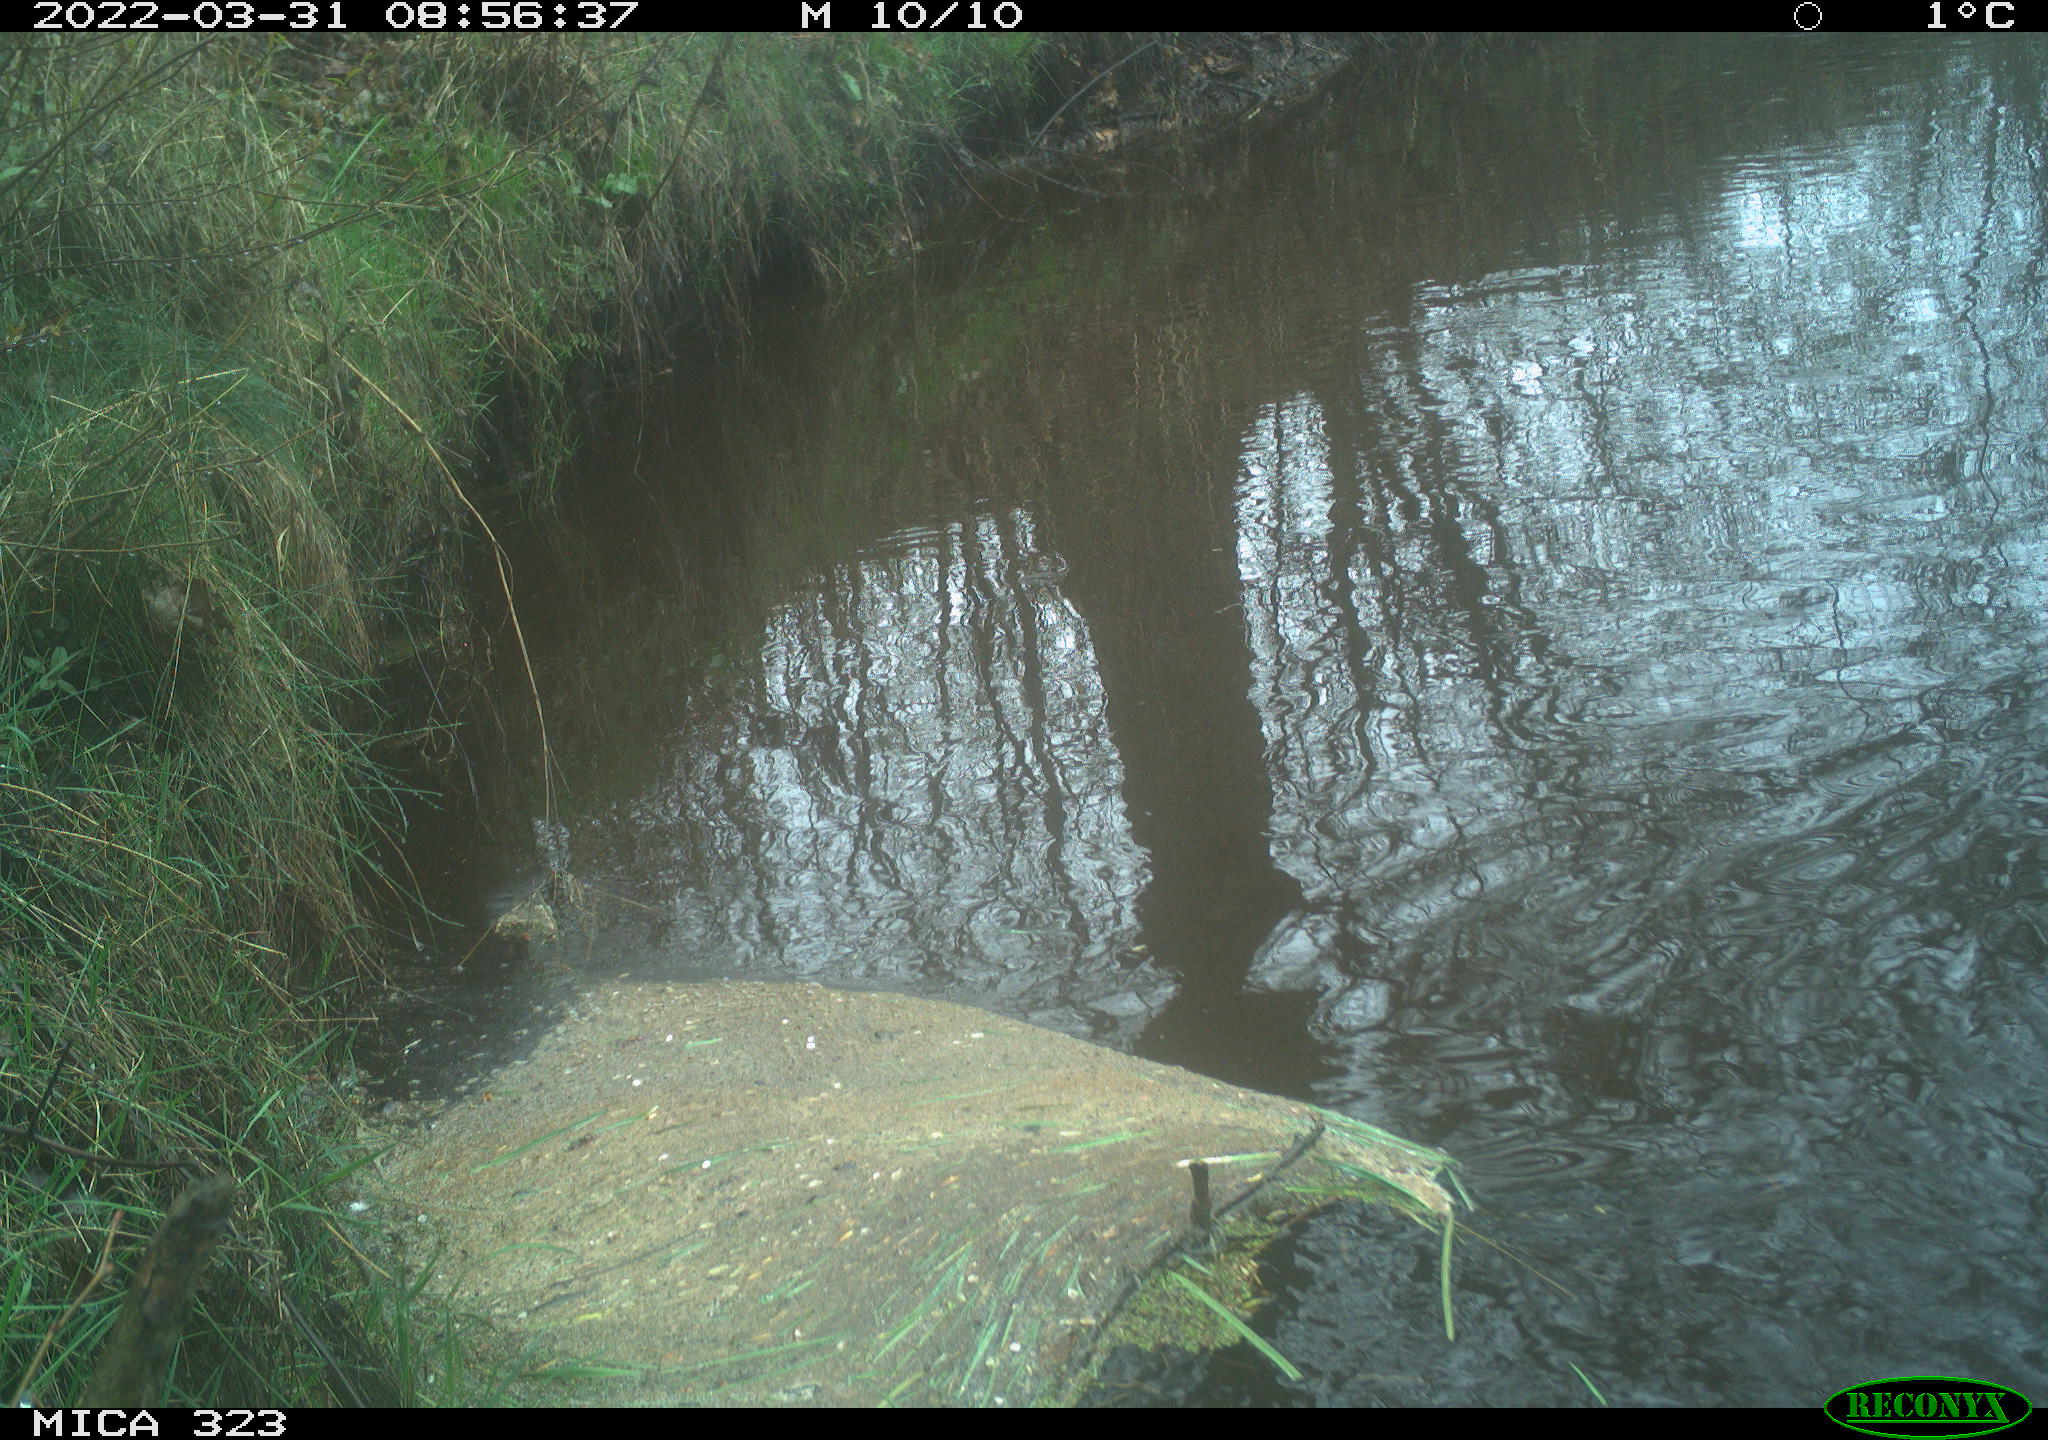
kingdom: Animalia
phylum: Chordata
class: Aves
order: Anseriformes
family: Anatidae
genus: Anas
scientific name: Anas
